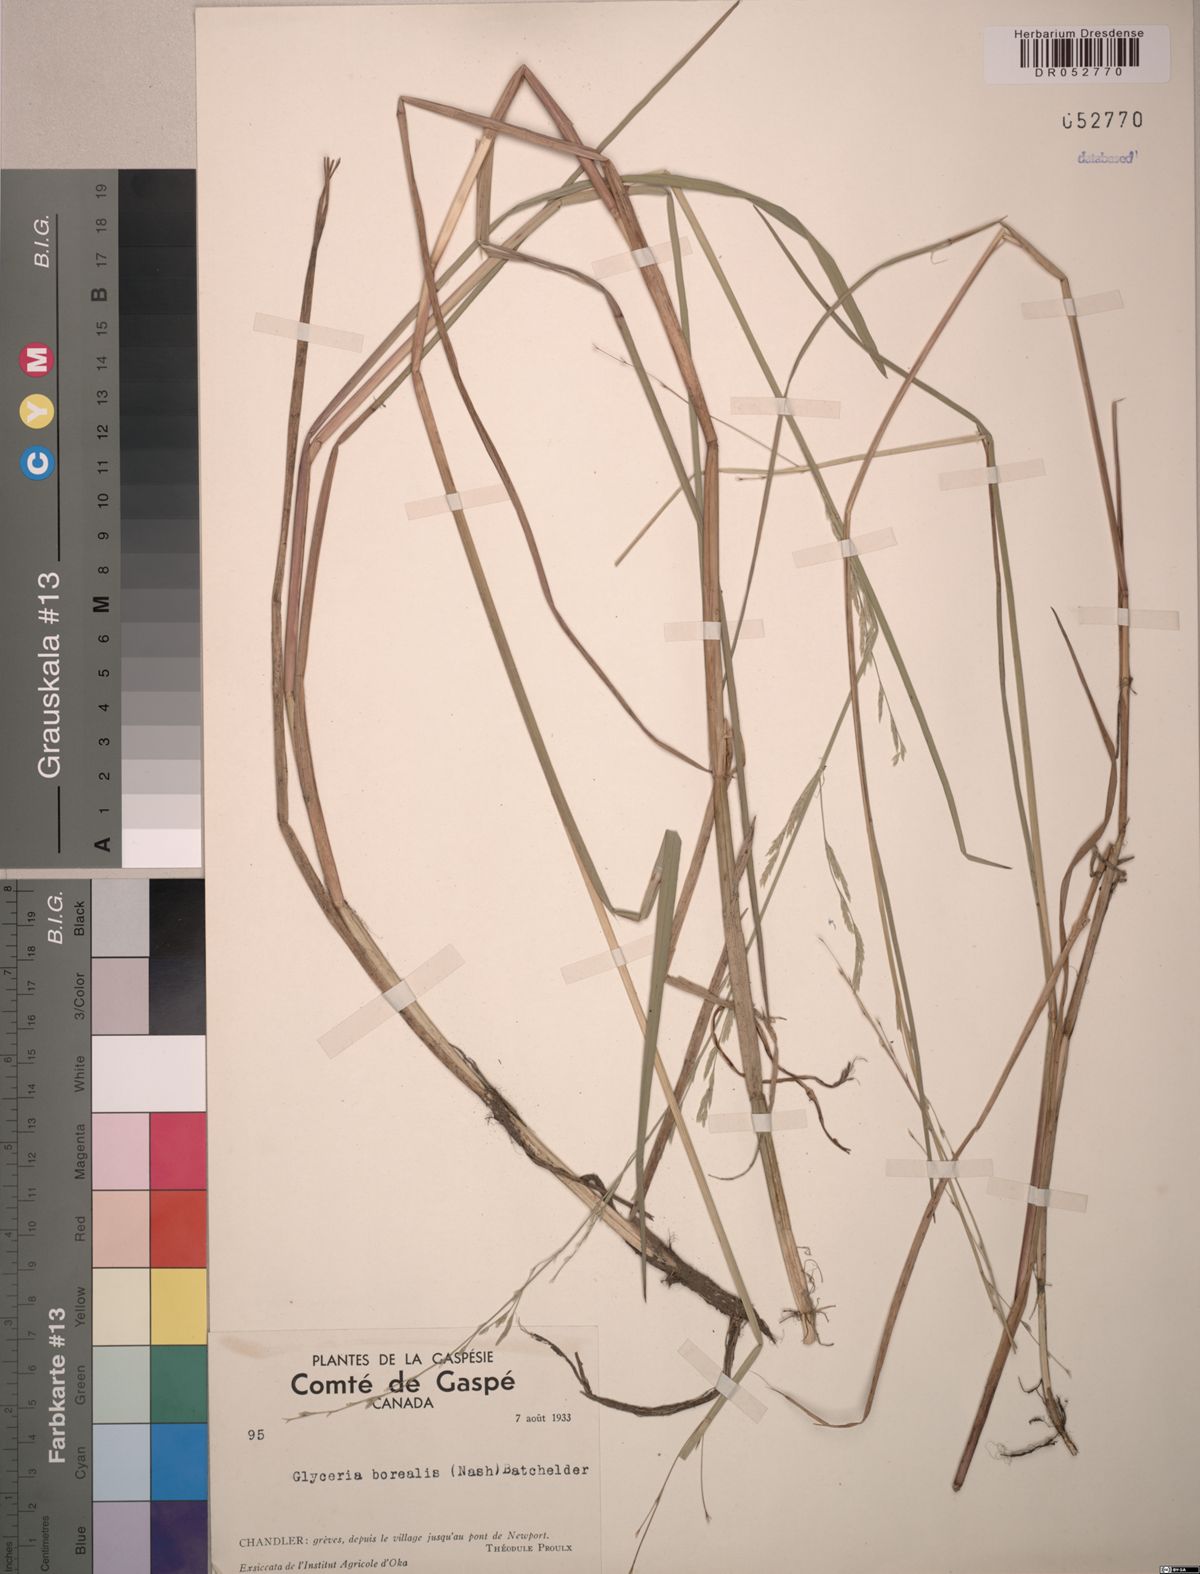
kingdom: Plantae
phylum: Tracheophyta
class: Liliopsida
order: Poales
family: Poaceae
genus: Glyceria
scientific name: Glyceria borealis
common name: Boreal glyceria
